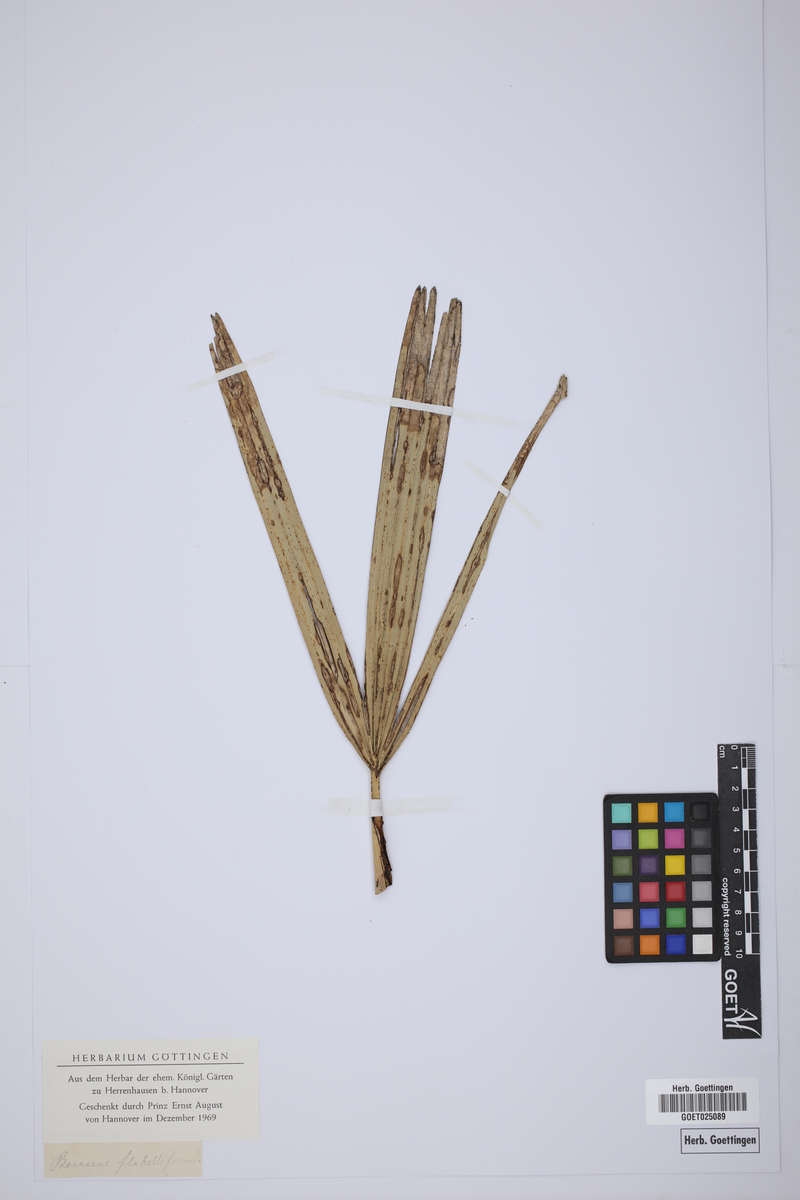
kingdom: Plantae
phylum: Tracheophyta
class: Liliopsida
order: Arecales
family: Arecaceae
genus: Borassus
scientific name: Borassus flabellifer
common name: Palmyra palm
